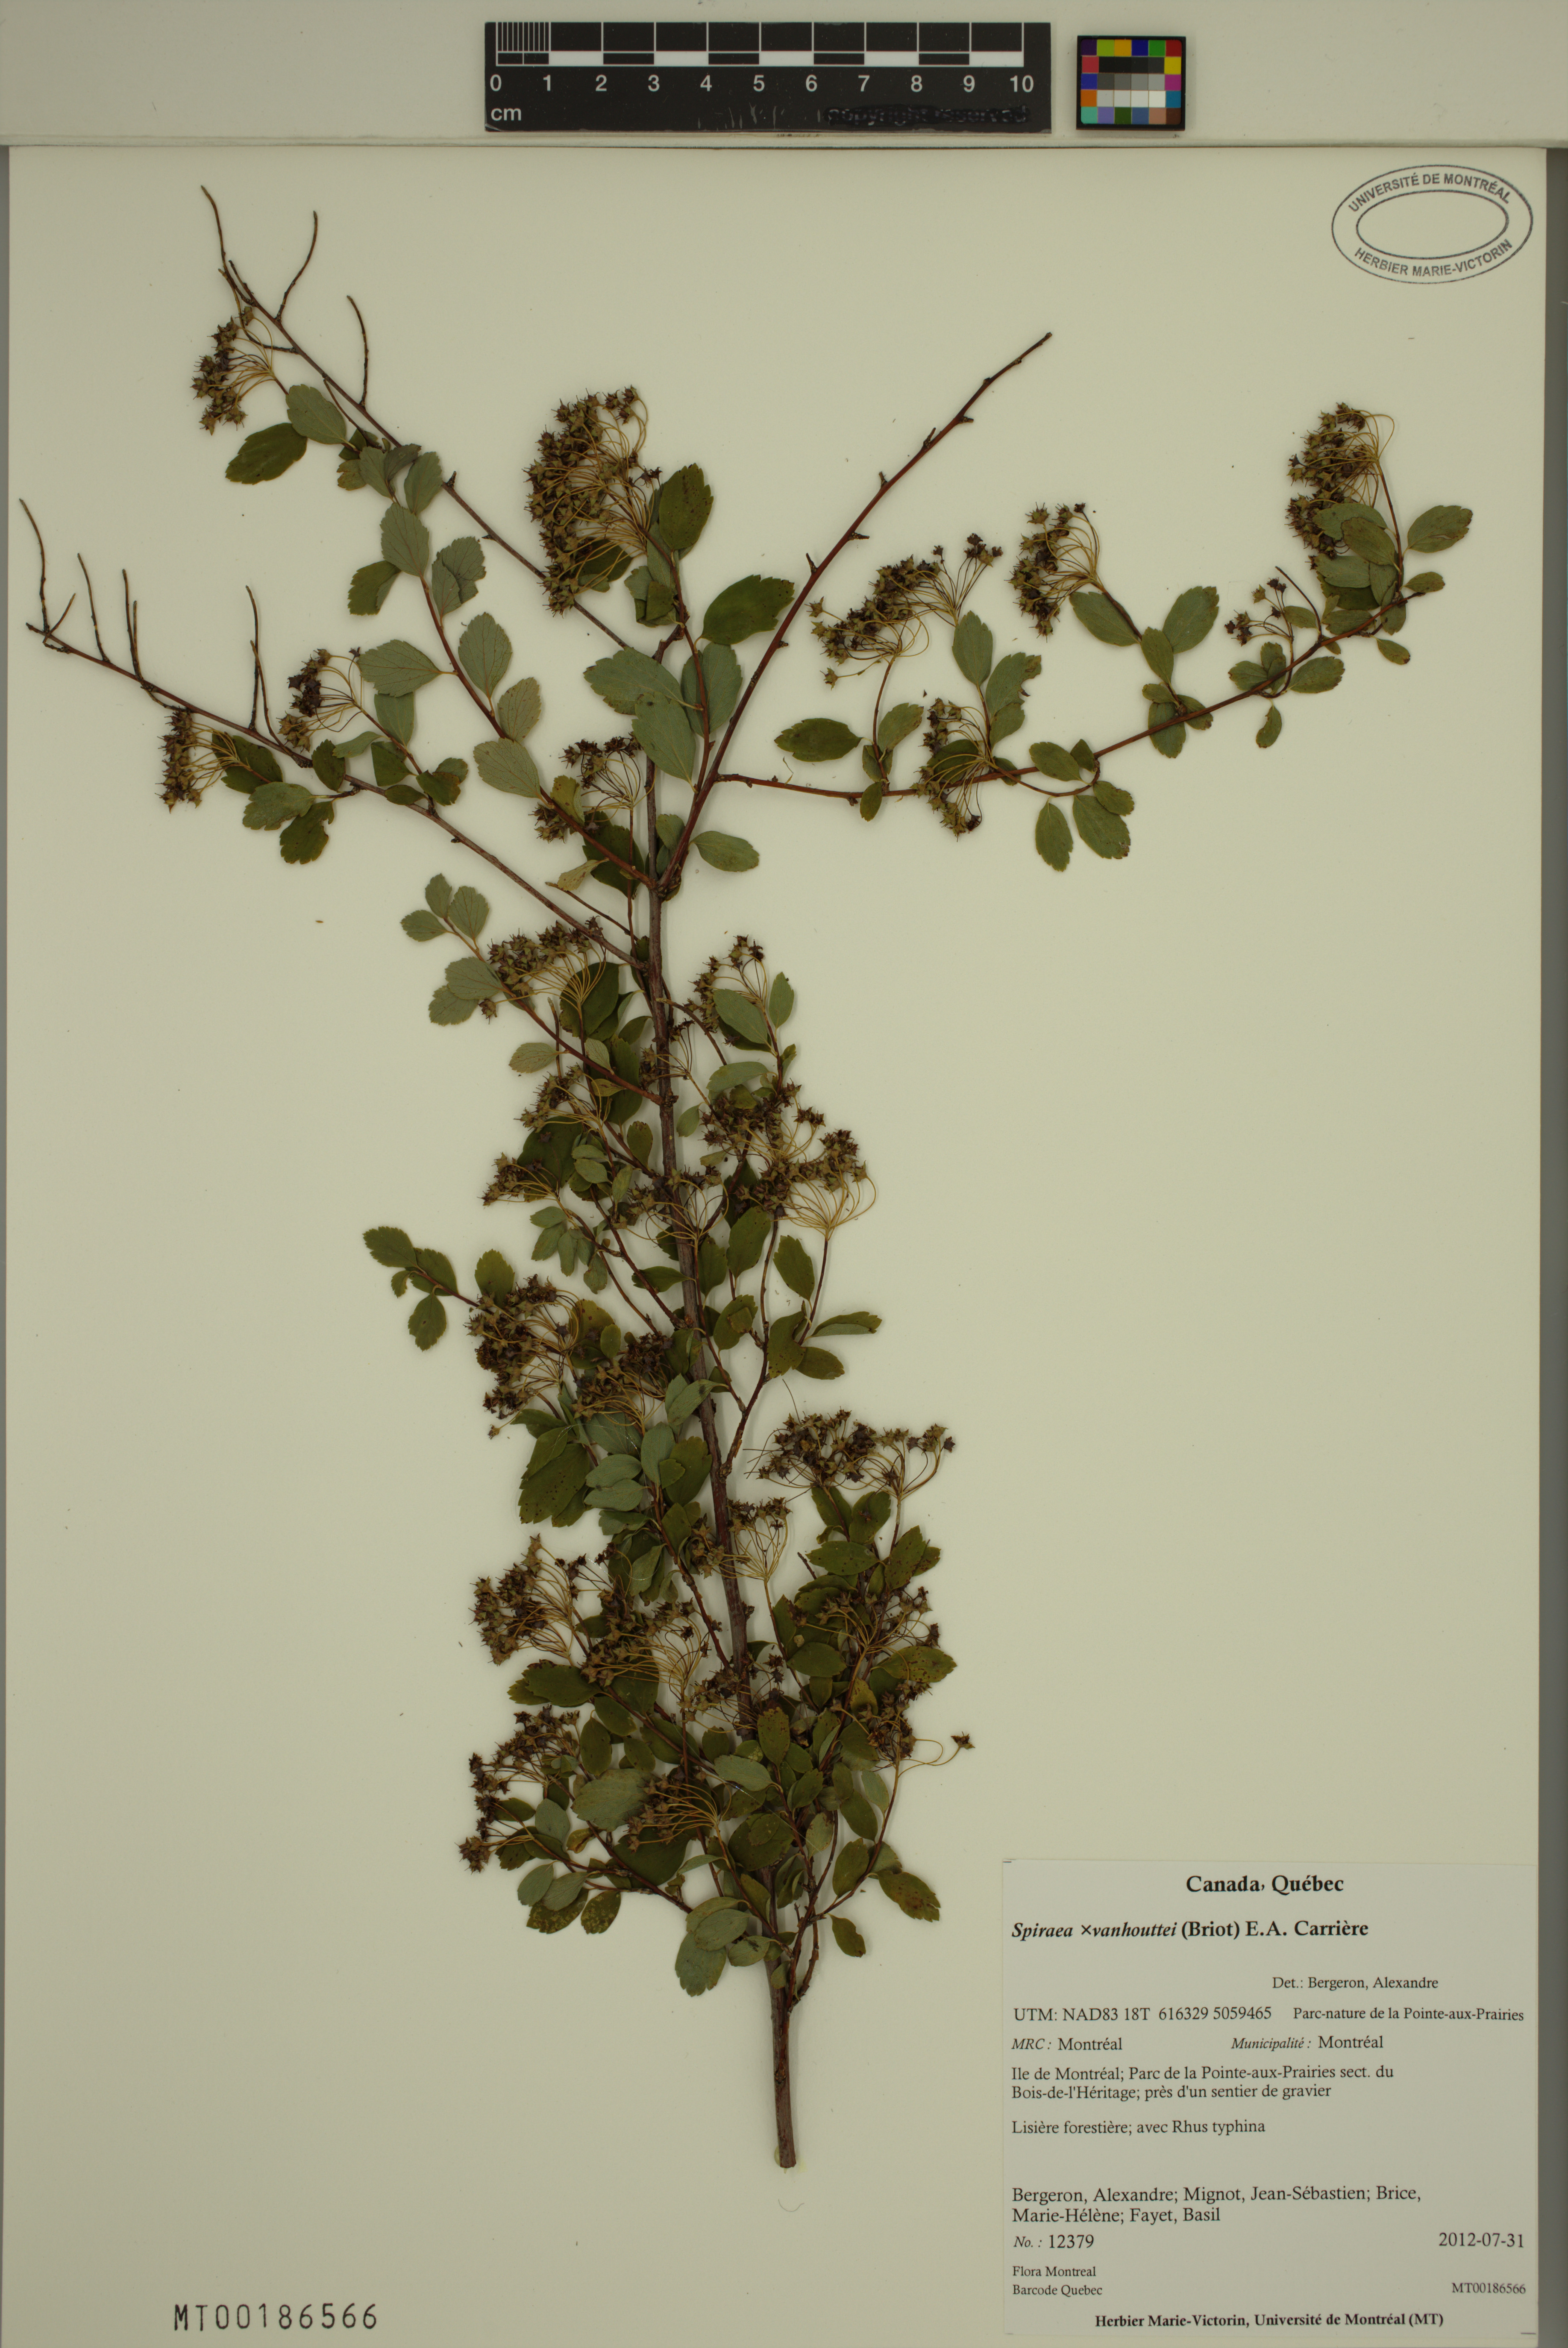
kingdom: Plantae
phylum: Tracheophyta
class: Magnoliopsida
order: Rosales
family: Rosaceae
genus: Spiraea
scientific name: Spiraea vanhouttei
